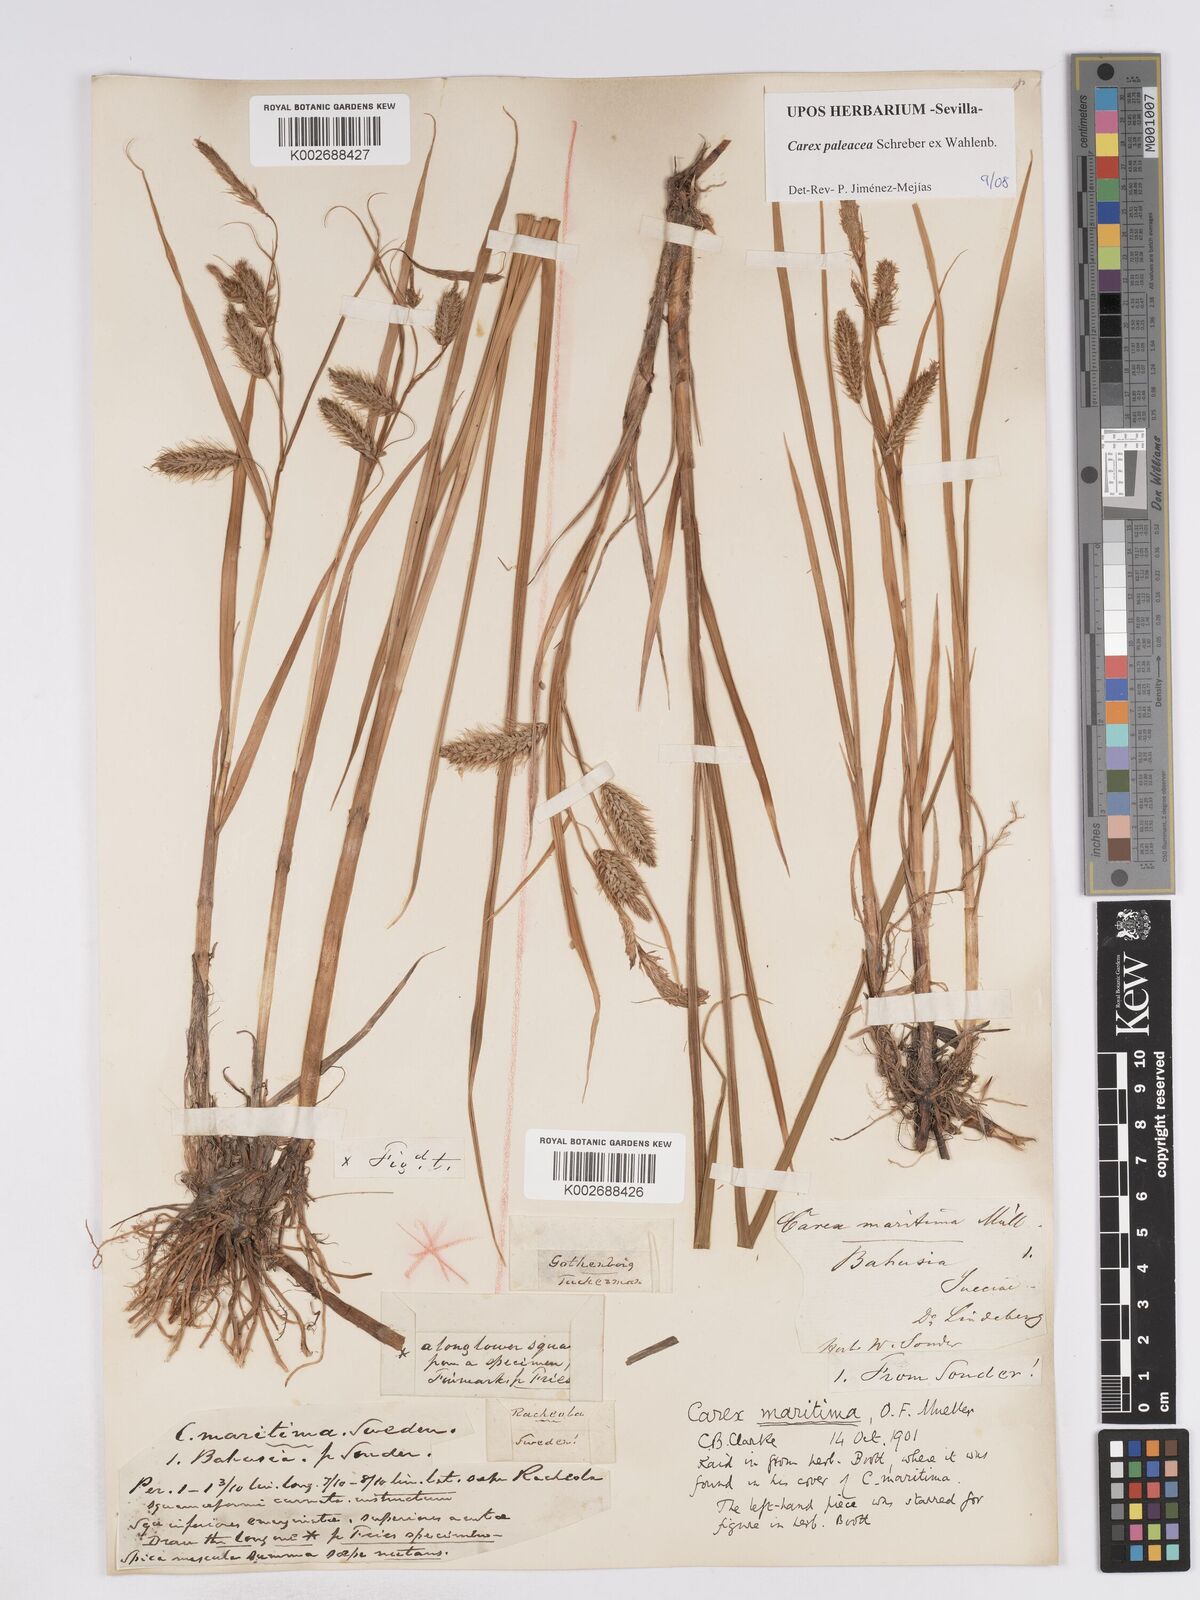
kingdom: Plantae
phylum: Tracheophyta
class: Liliopsida
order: Poales
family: Cyperaceae
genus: Carex
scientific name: Carex paleacea
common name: Chaffy sedge
